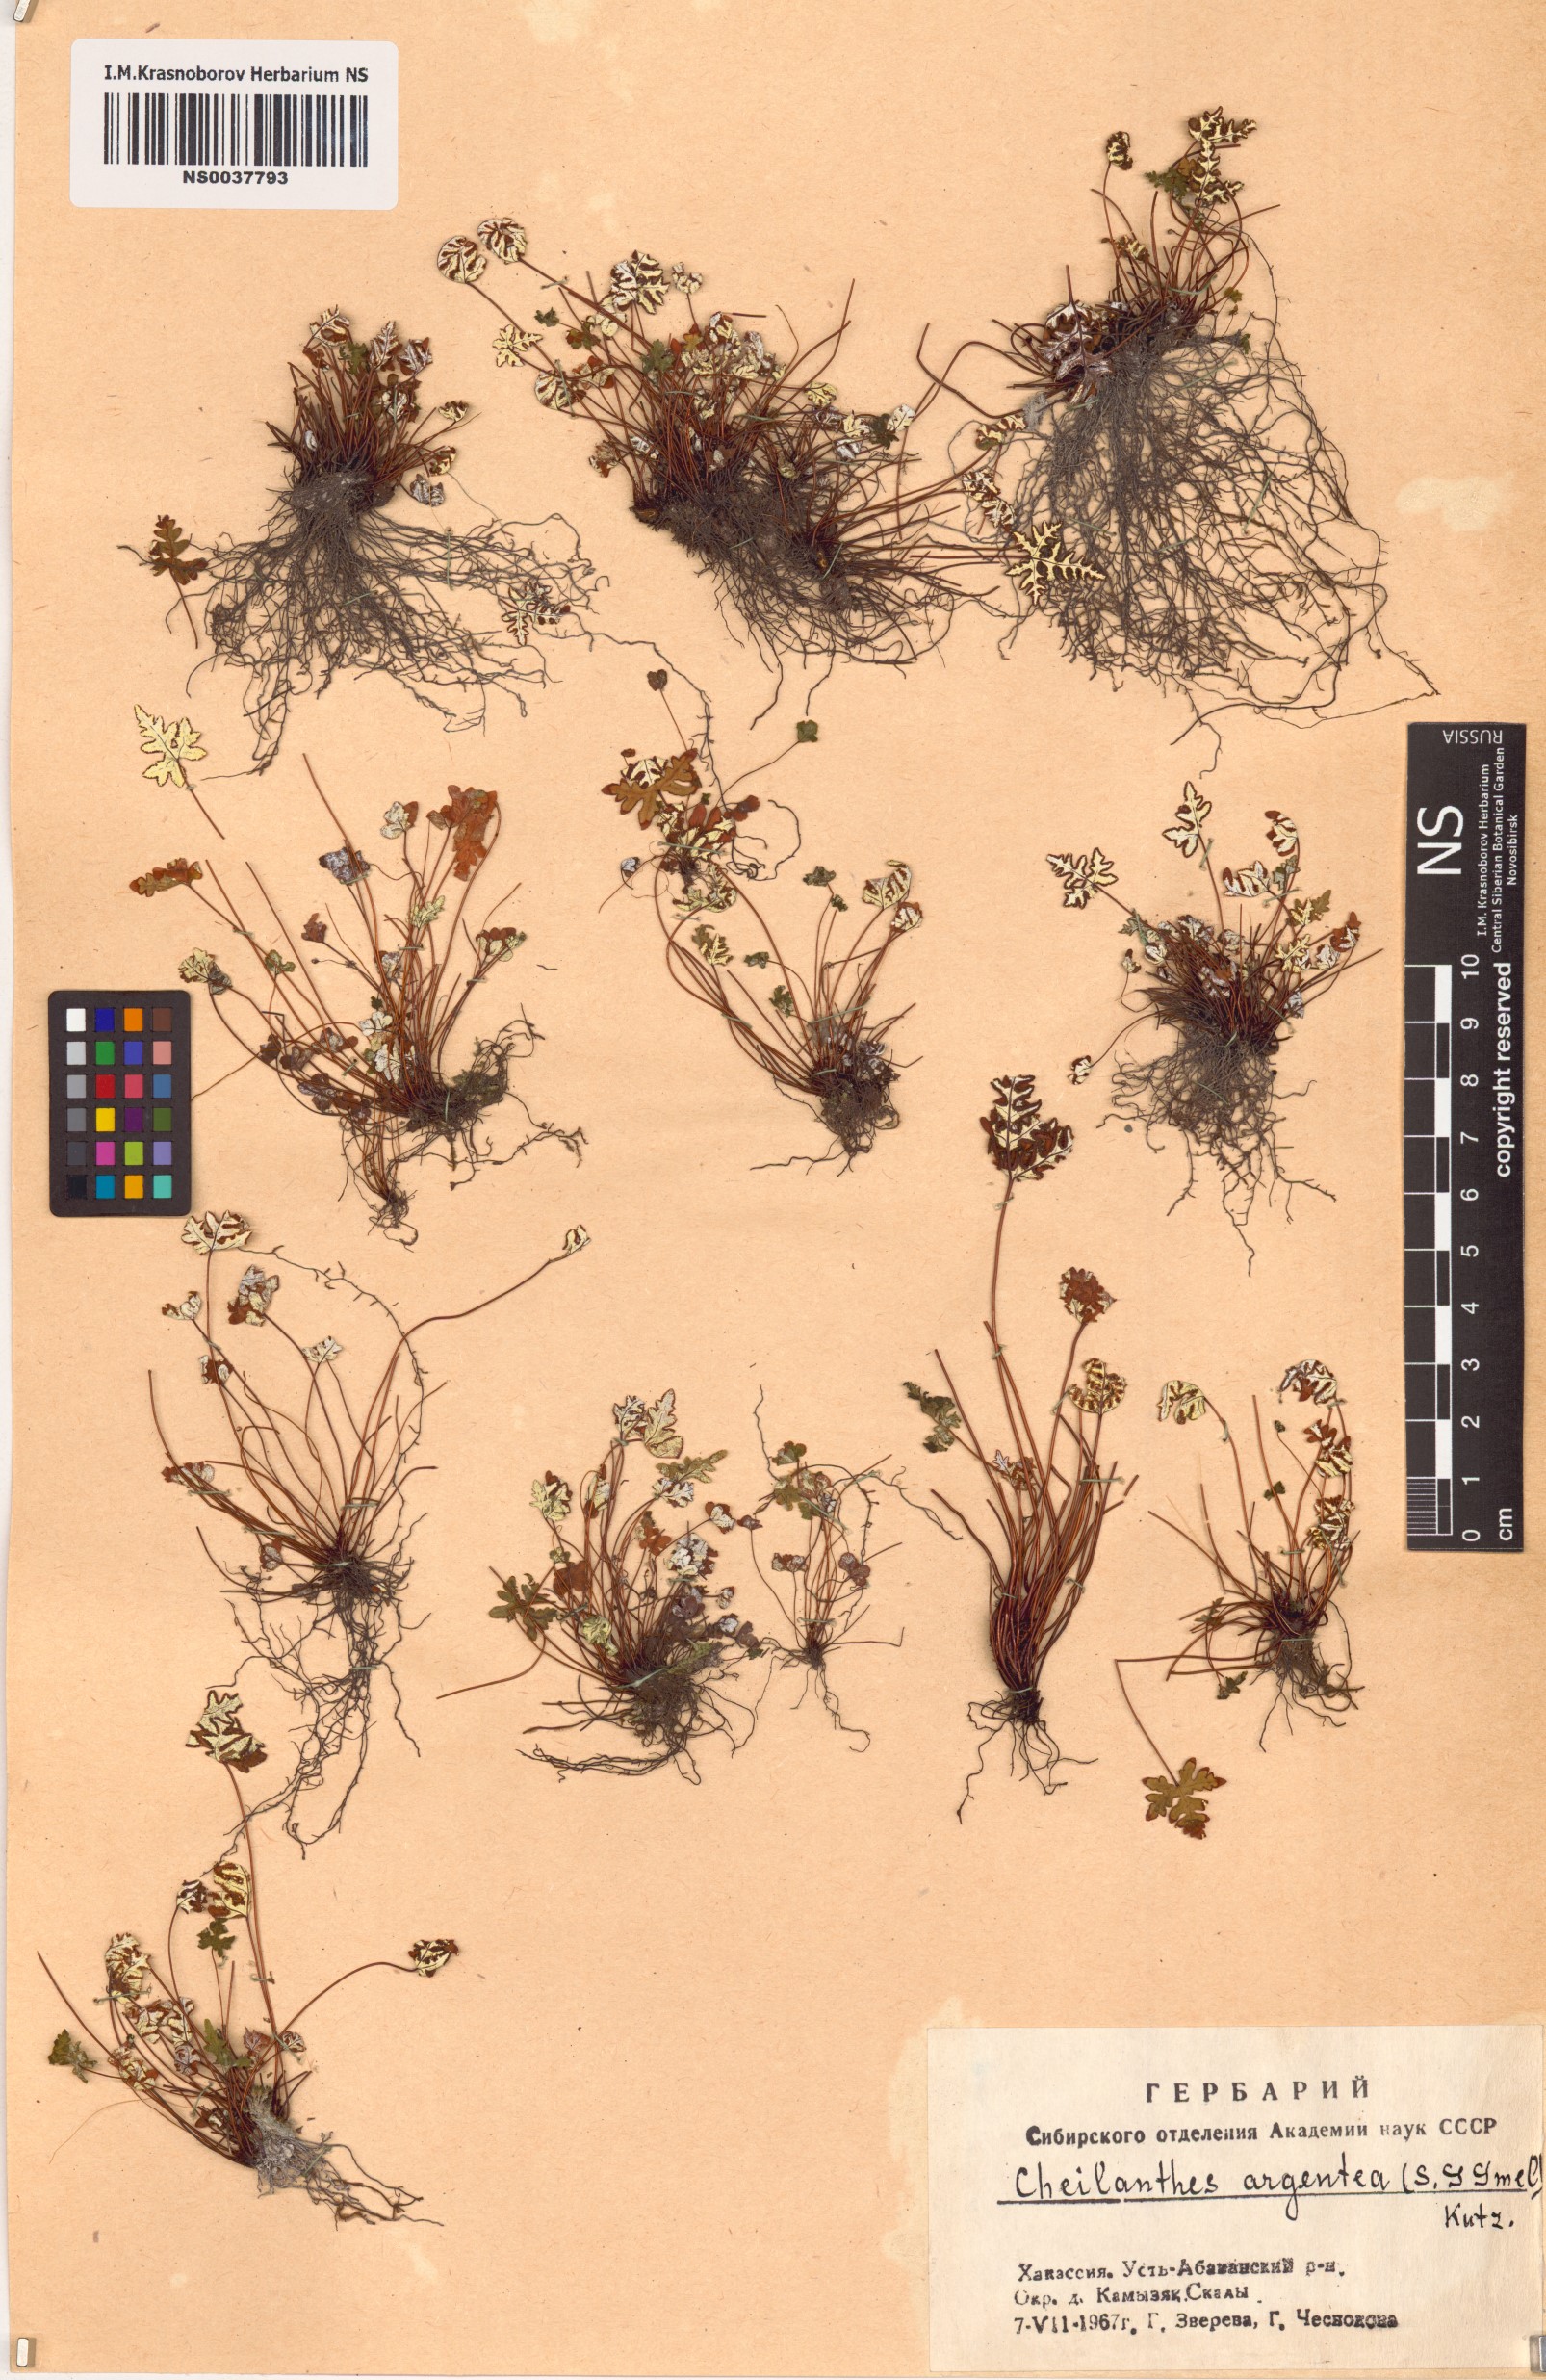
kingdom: Plantae
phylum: Tracheophyta
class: Polypodiopsida
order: Polypodiales
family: Pteridaceae
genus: Aleuritopteris
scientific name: Aleuritopteris argentea
